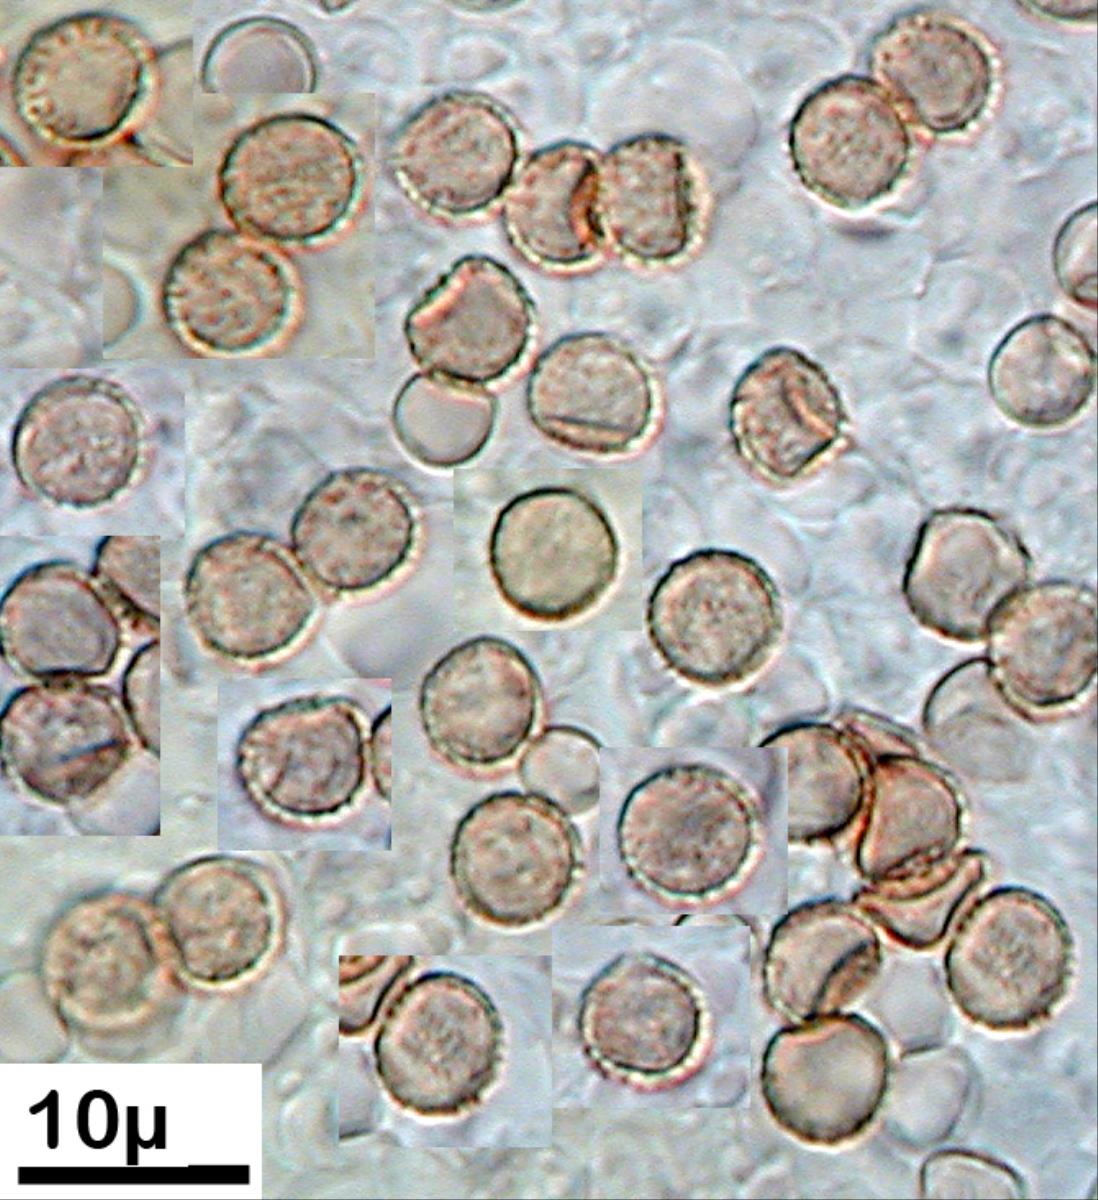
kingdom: Fungi
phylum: Basidiomycota
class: Agaricomycetes
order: Agaricales
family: Crepidotaceae
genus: Crepidotus
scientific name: Crepidotus nanicus
